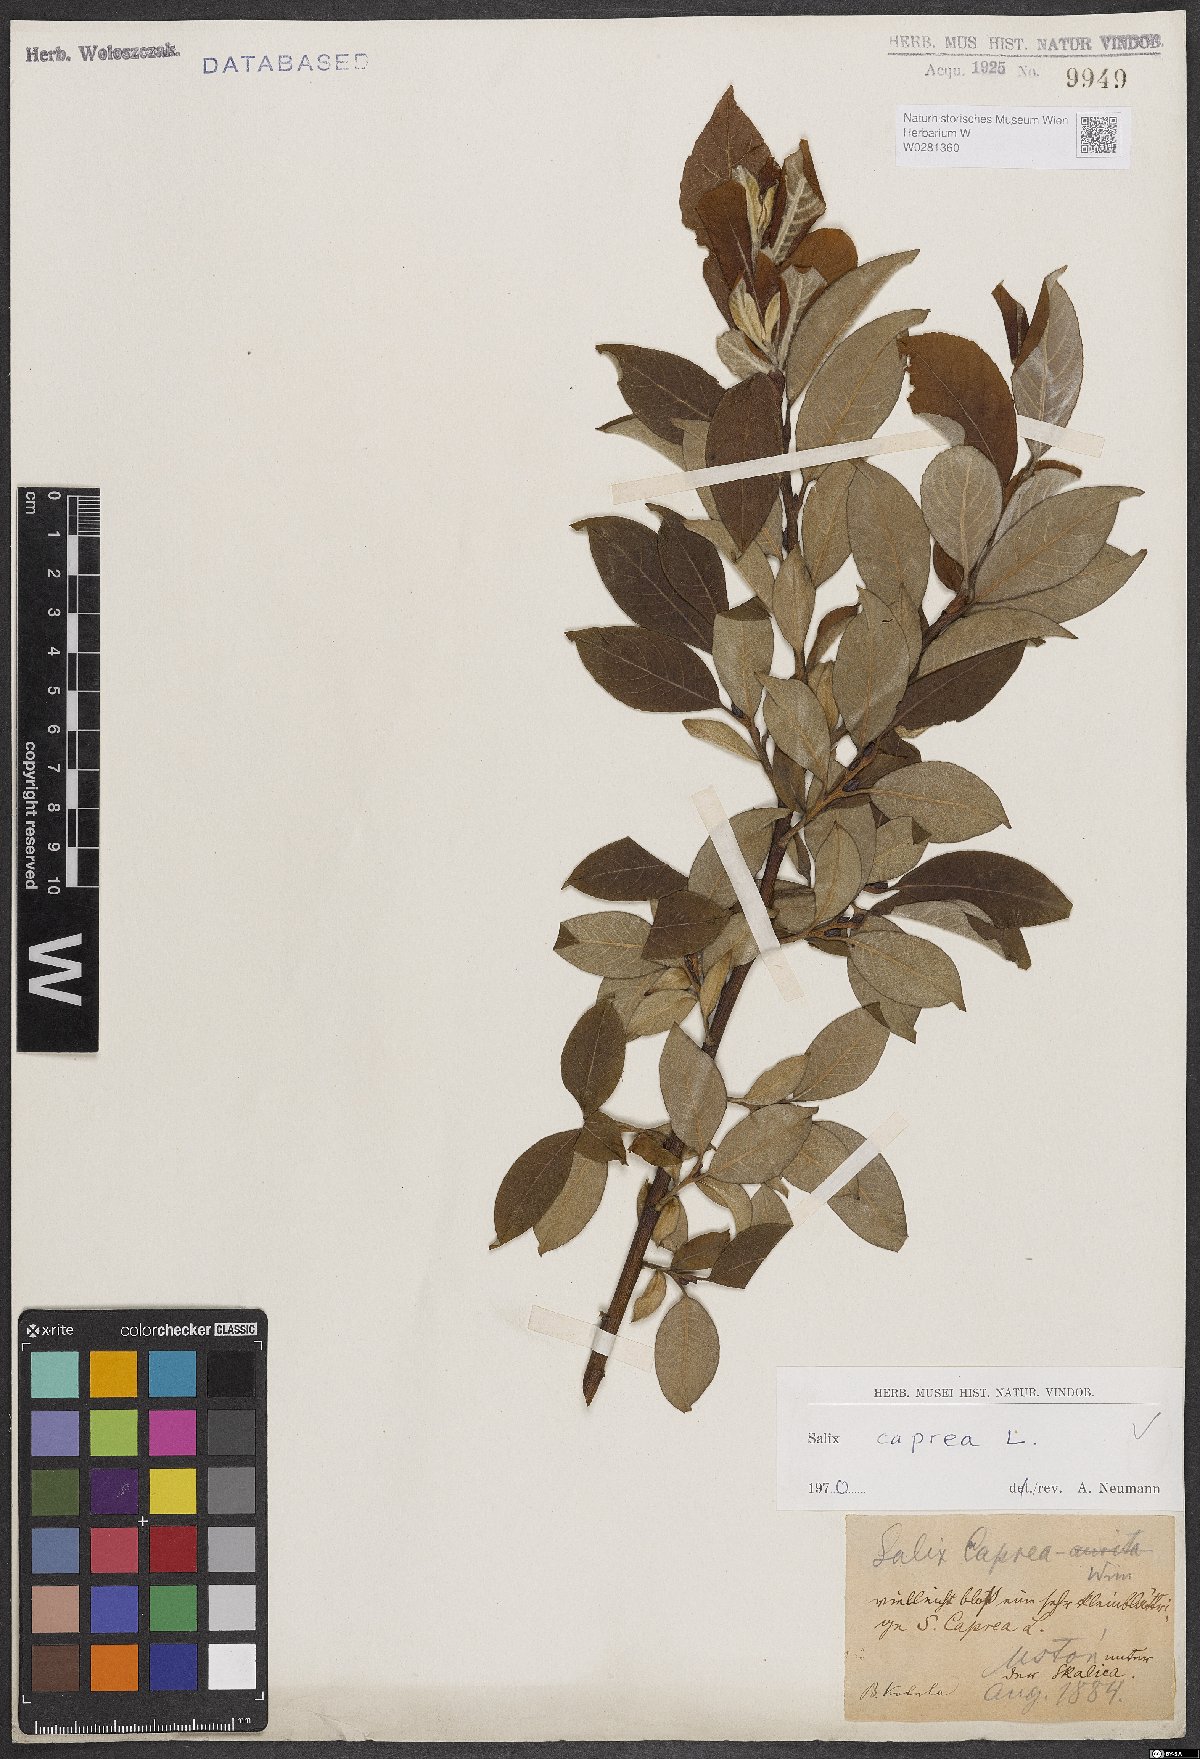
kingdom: Plantae
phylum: Tracheophyta
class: Magnoliopsida
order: Malpighiales
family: Salicaceae
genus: Salix
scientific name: Salix caprea
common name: Goat willow
